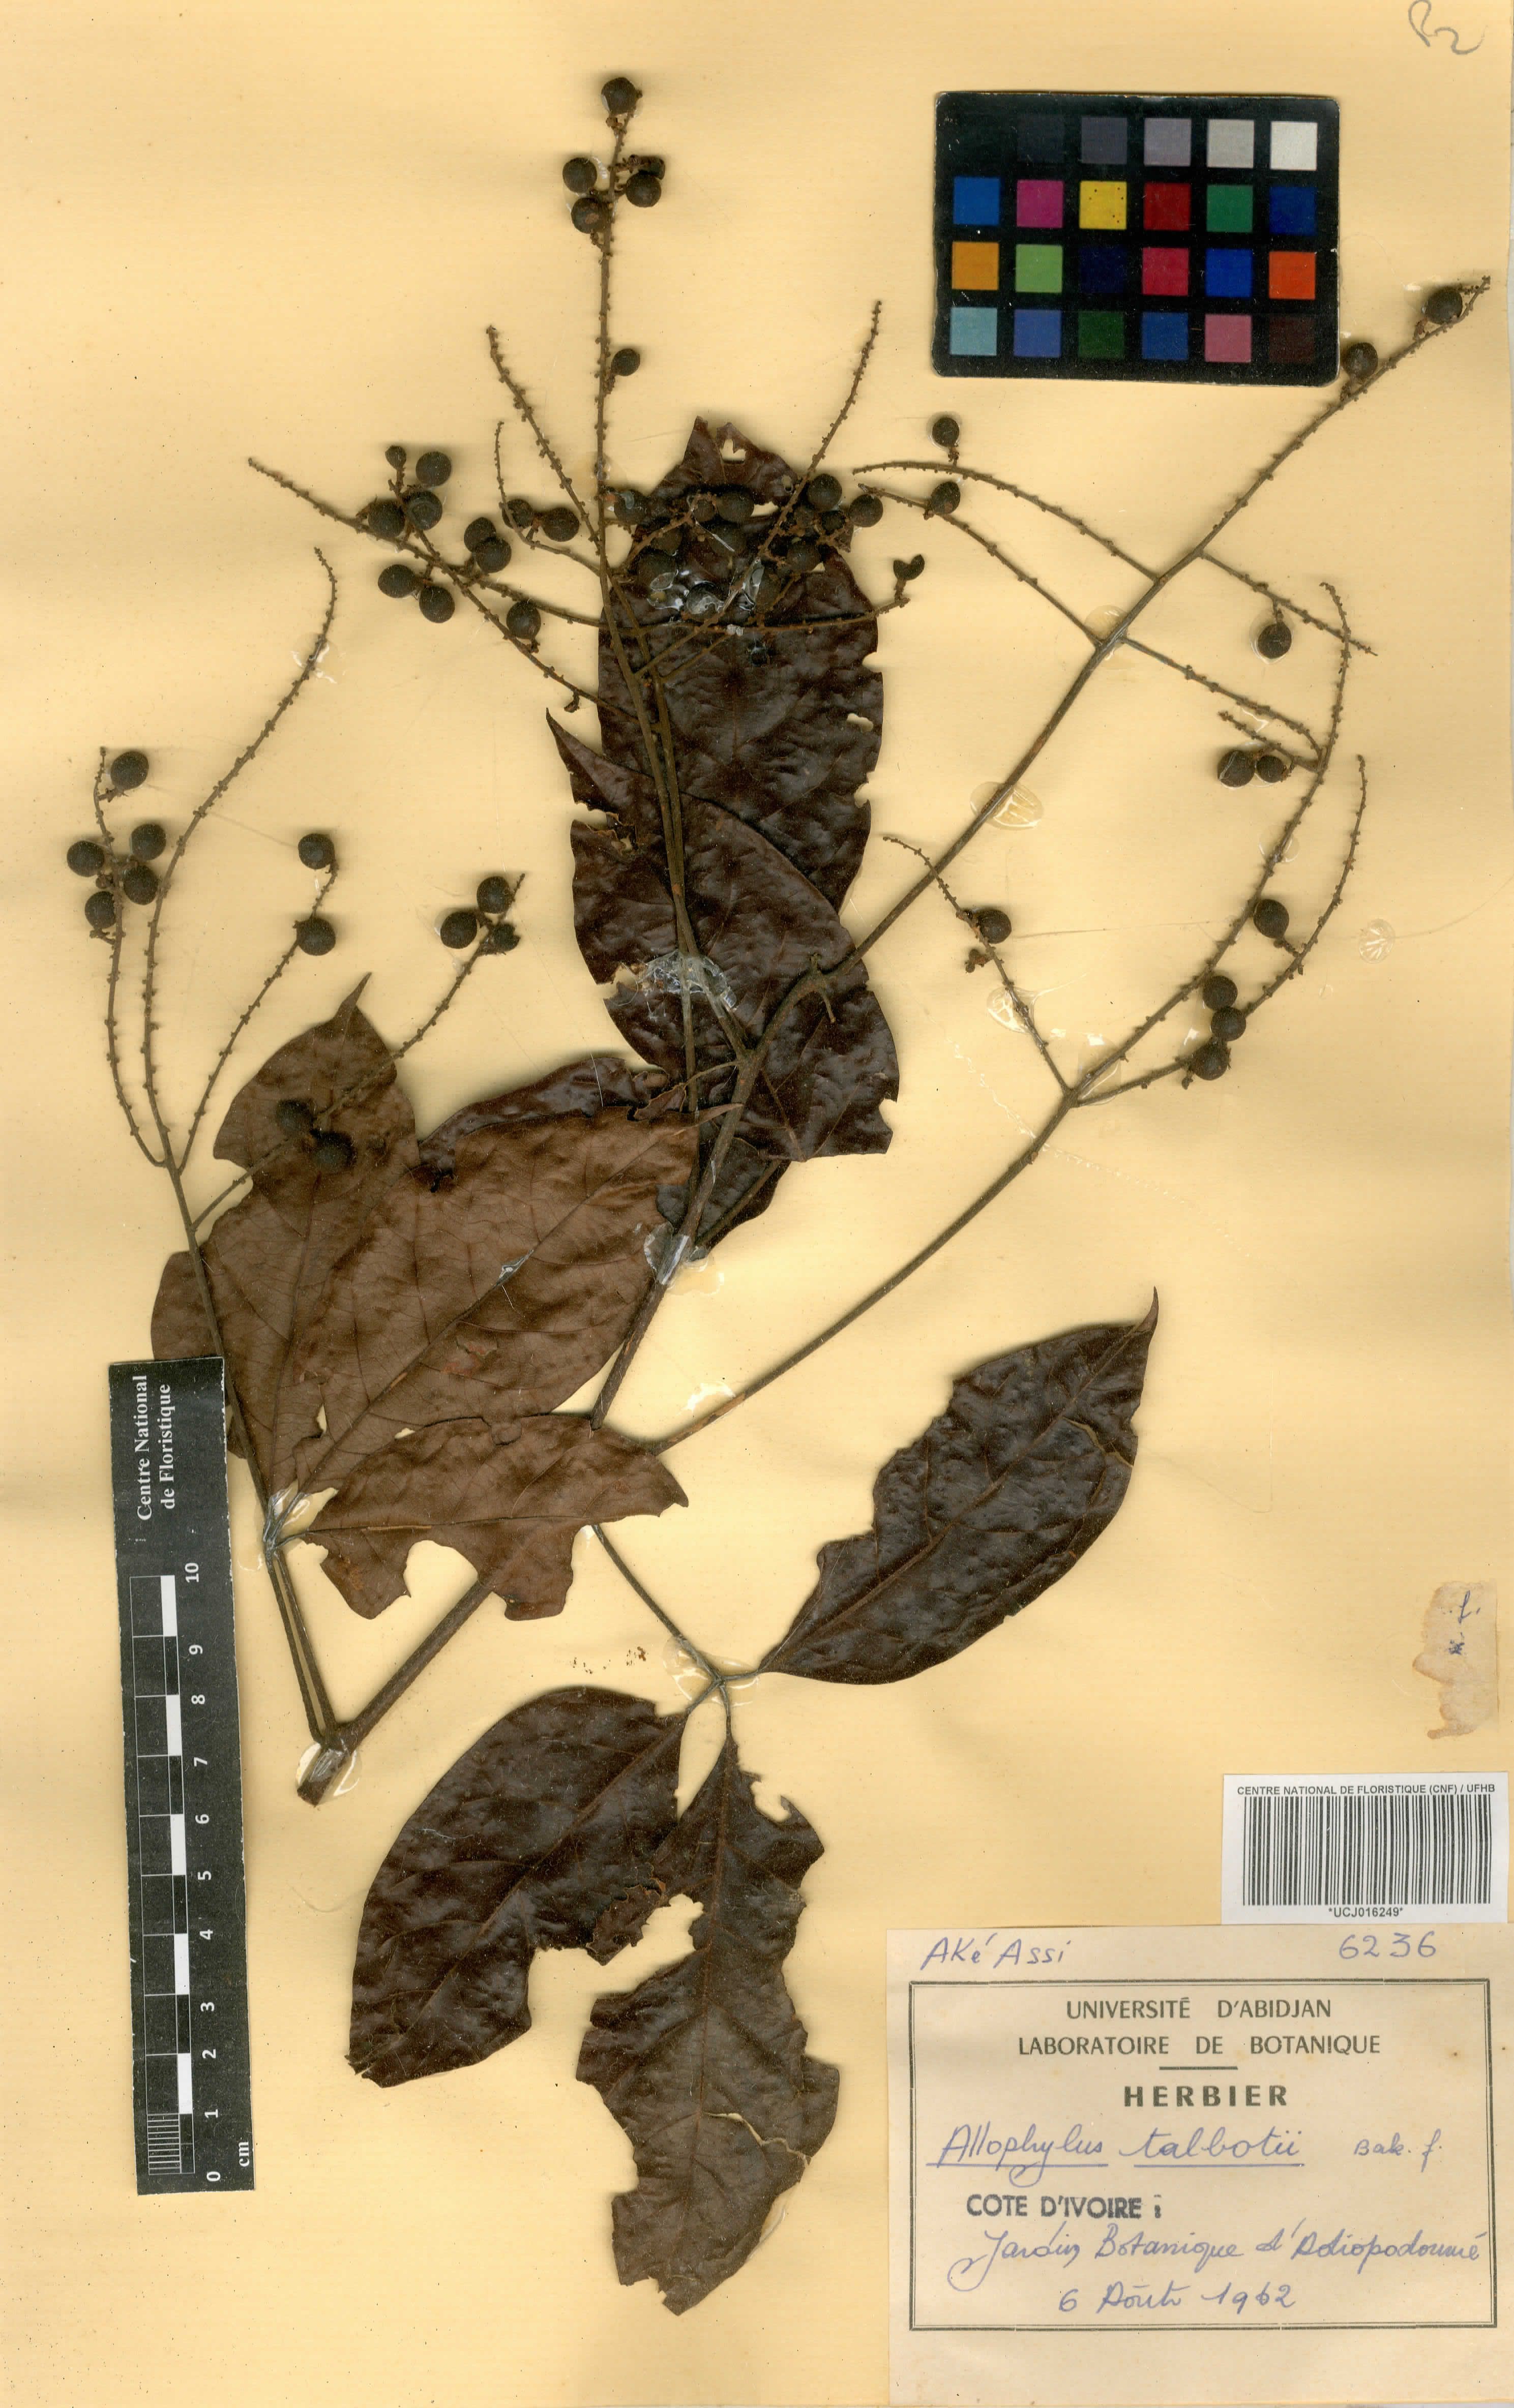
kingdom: Plantae
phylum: Tracheophyta
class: Magnoliopsida
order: Sapindales
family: Sapindaceae
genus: Allophylus
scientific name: Allophylus talbotii
